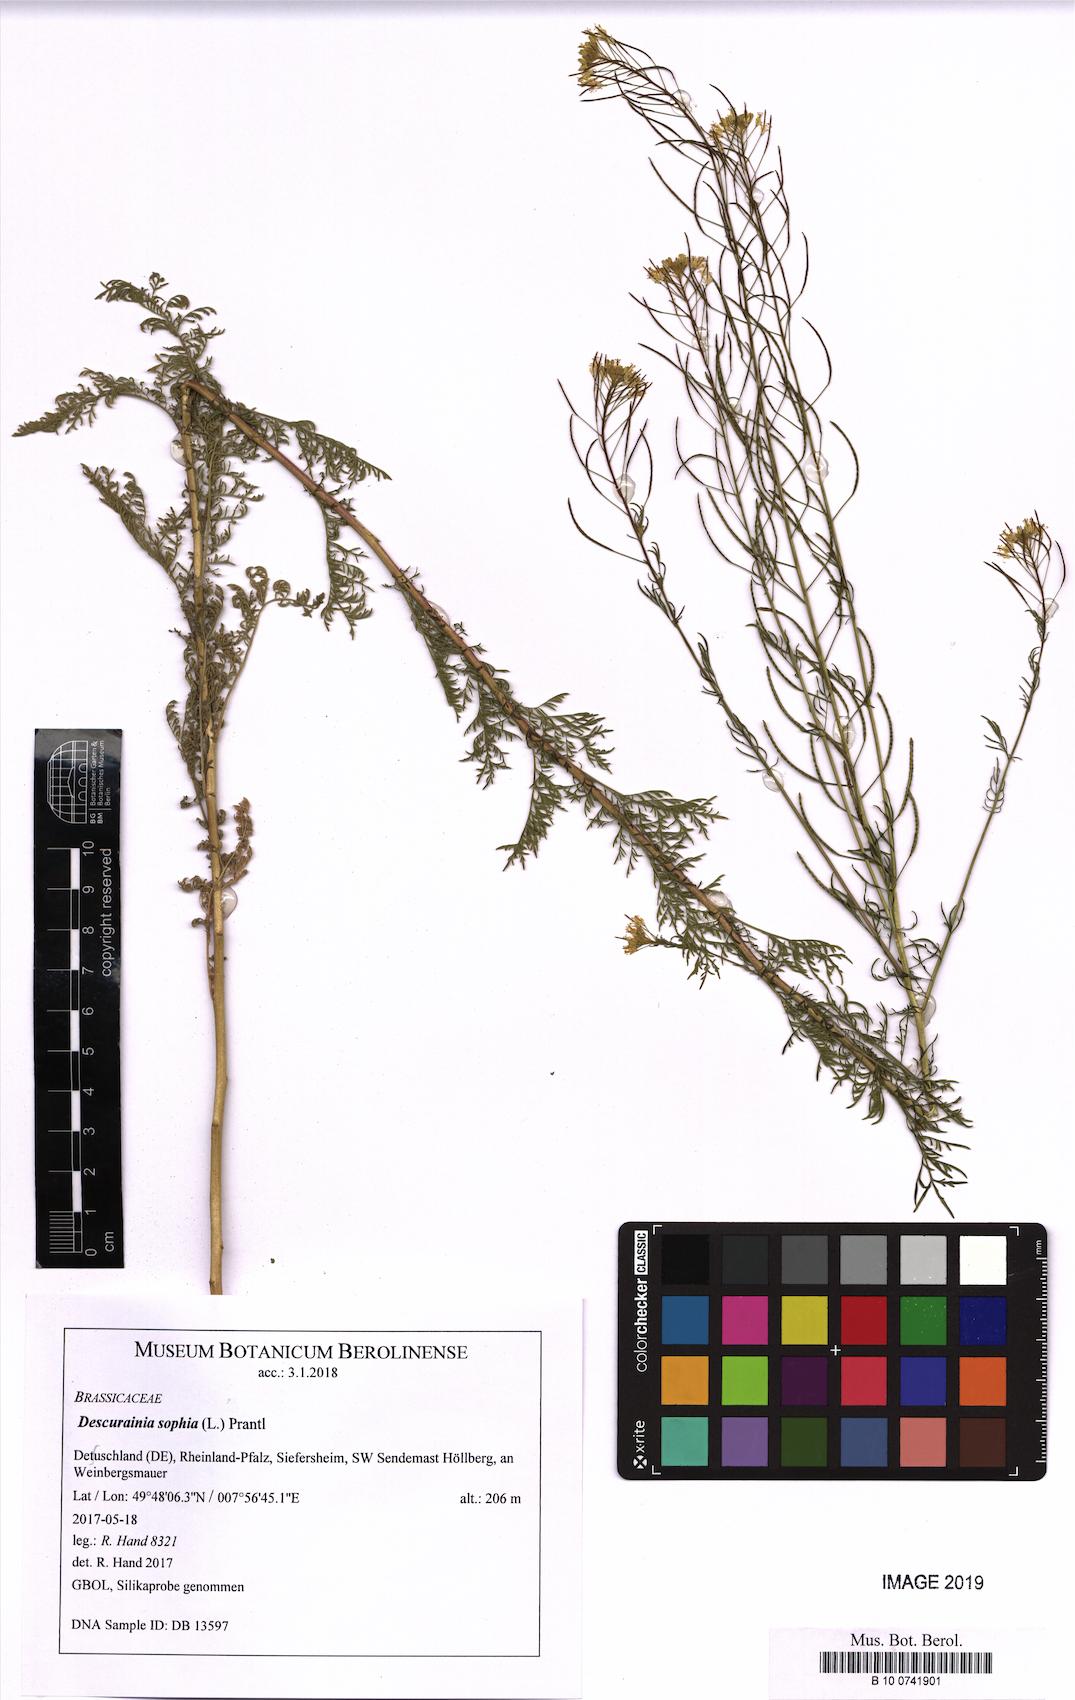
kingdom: Plantae
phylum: Tracheophyta
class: Magnoliopsida
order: Brassicales
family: Brassicaceae
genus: Descurainia
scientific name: Descurainia sophia
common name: Flixweed
